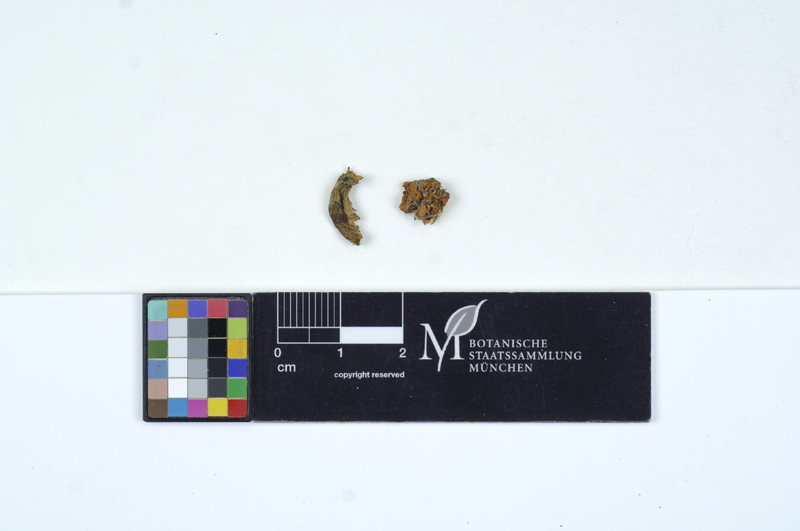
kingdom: Fungi
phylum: Basidiomycota
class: Agaricomycetes
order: Agaricales
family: Omphalotaceae
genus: Gymnopus
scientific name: Gymnopus dryophilus
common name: Penny top
